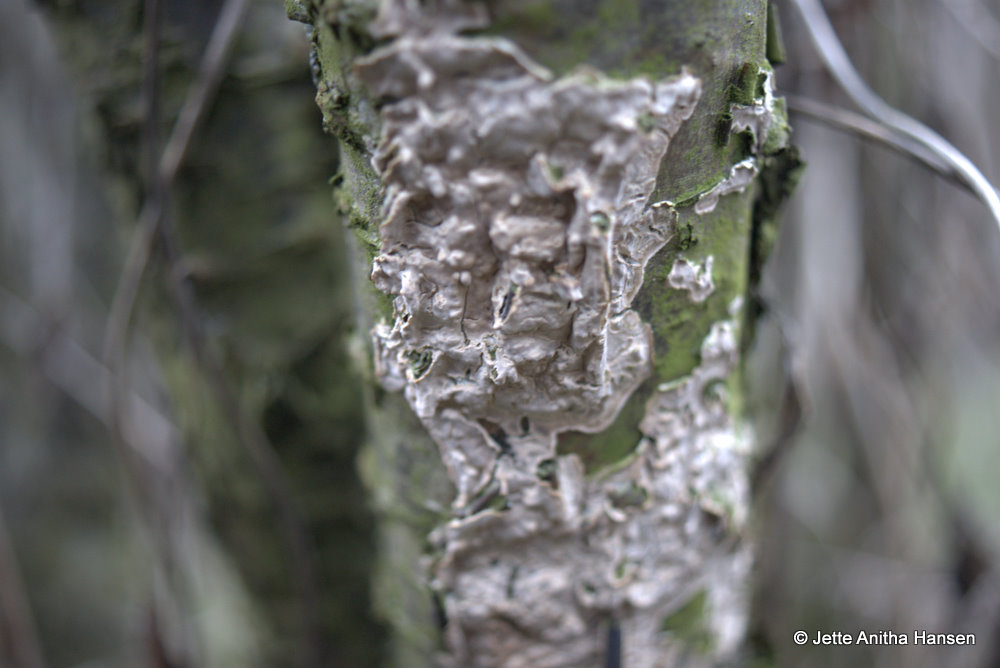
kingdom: Fungi
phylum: Basidiomycota
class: Agaricomycetes
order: Agaricales
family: Physalacriaceae
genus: Cylindrobasidium
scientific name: Cylindrobasidium evolvens
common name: sprækkehinde
